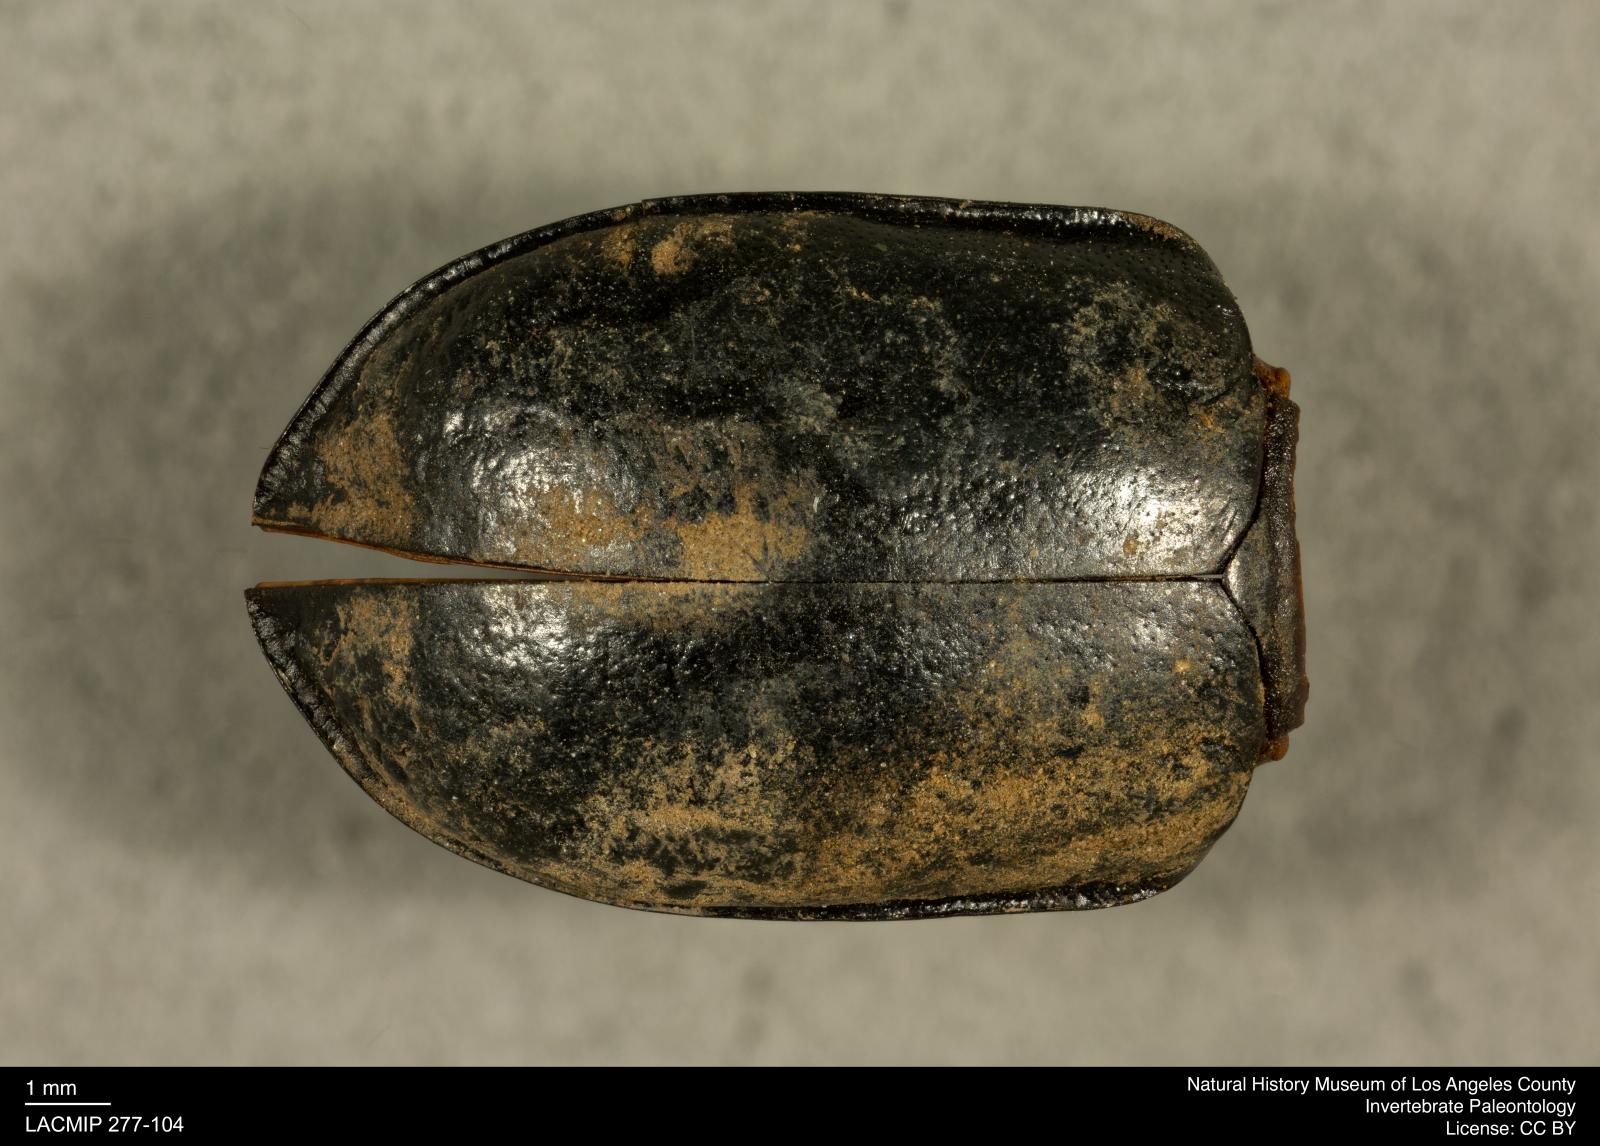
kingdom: Animalia
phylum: Arthropoda
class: Insecta
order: Coleoptera
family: Tenebrionidae
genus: Coniontis
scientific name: Coniontis abdominalis
